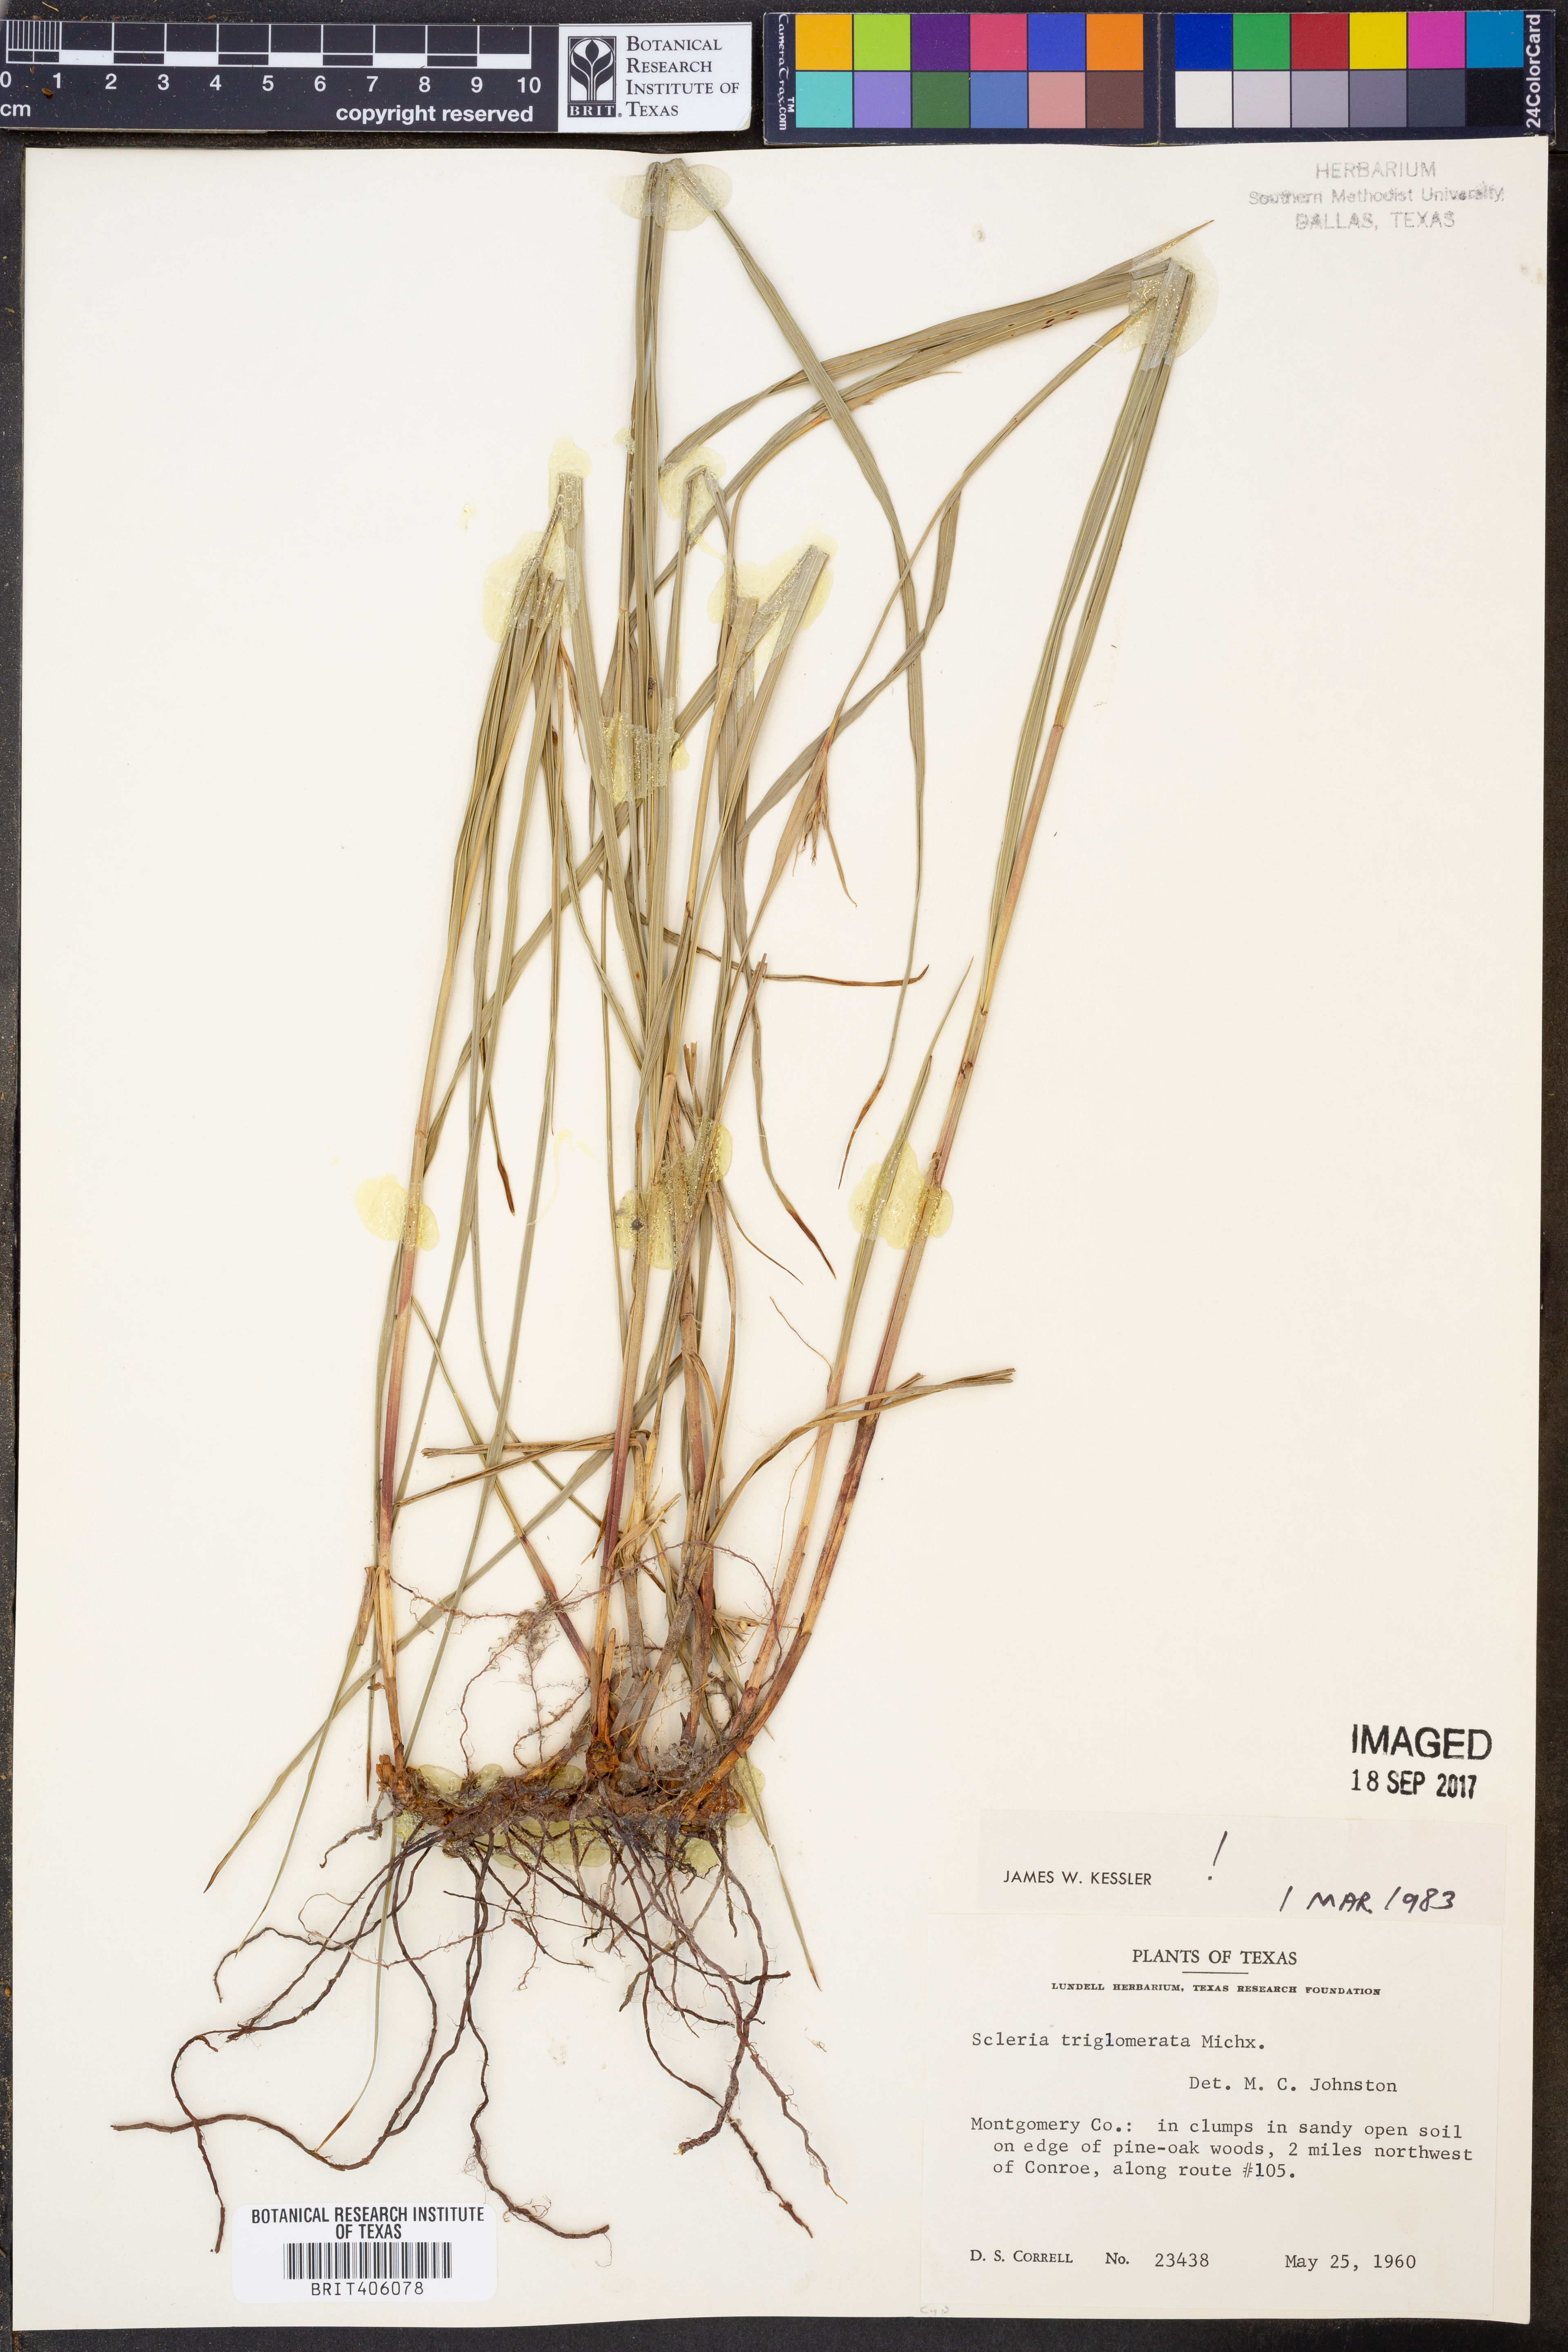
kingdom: Plantae
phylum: Tracheophyta
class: Liliopsida
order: Poales
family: Cyperaceae
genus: Scleria
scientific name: Scleria triglomerata
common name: Whip nutrush
